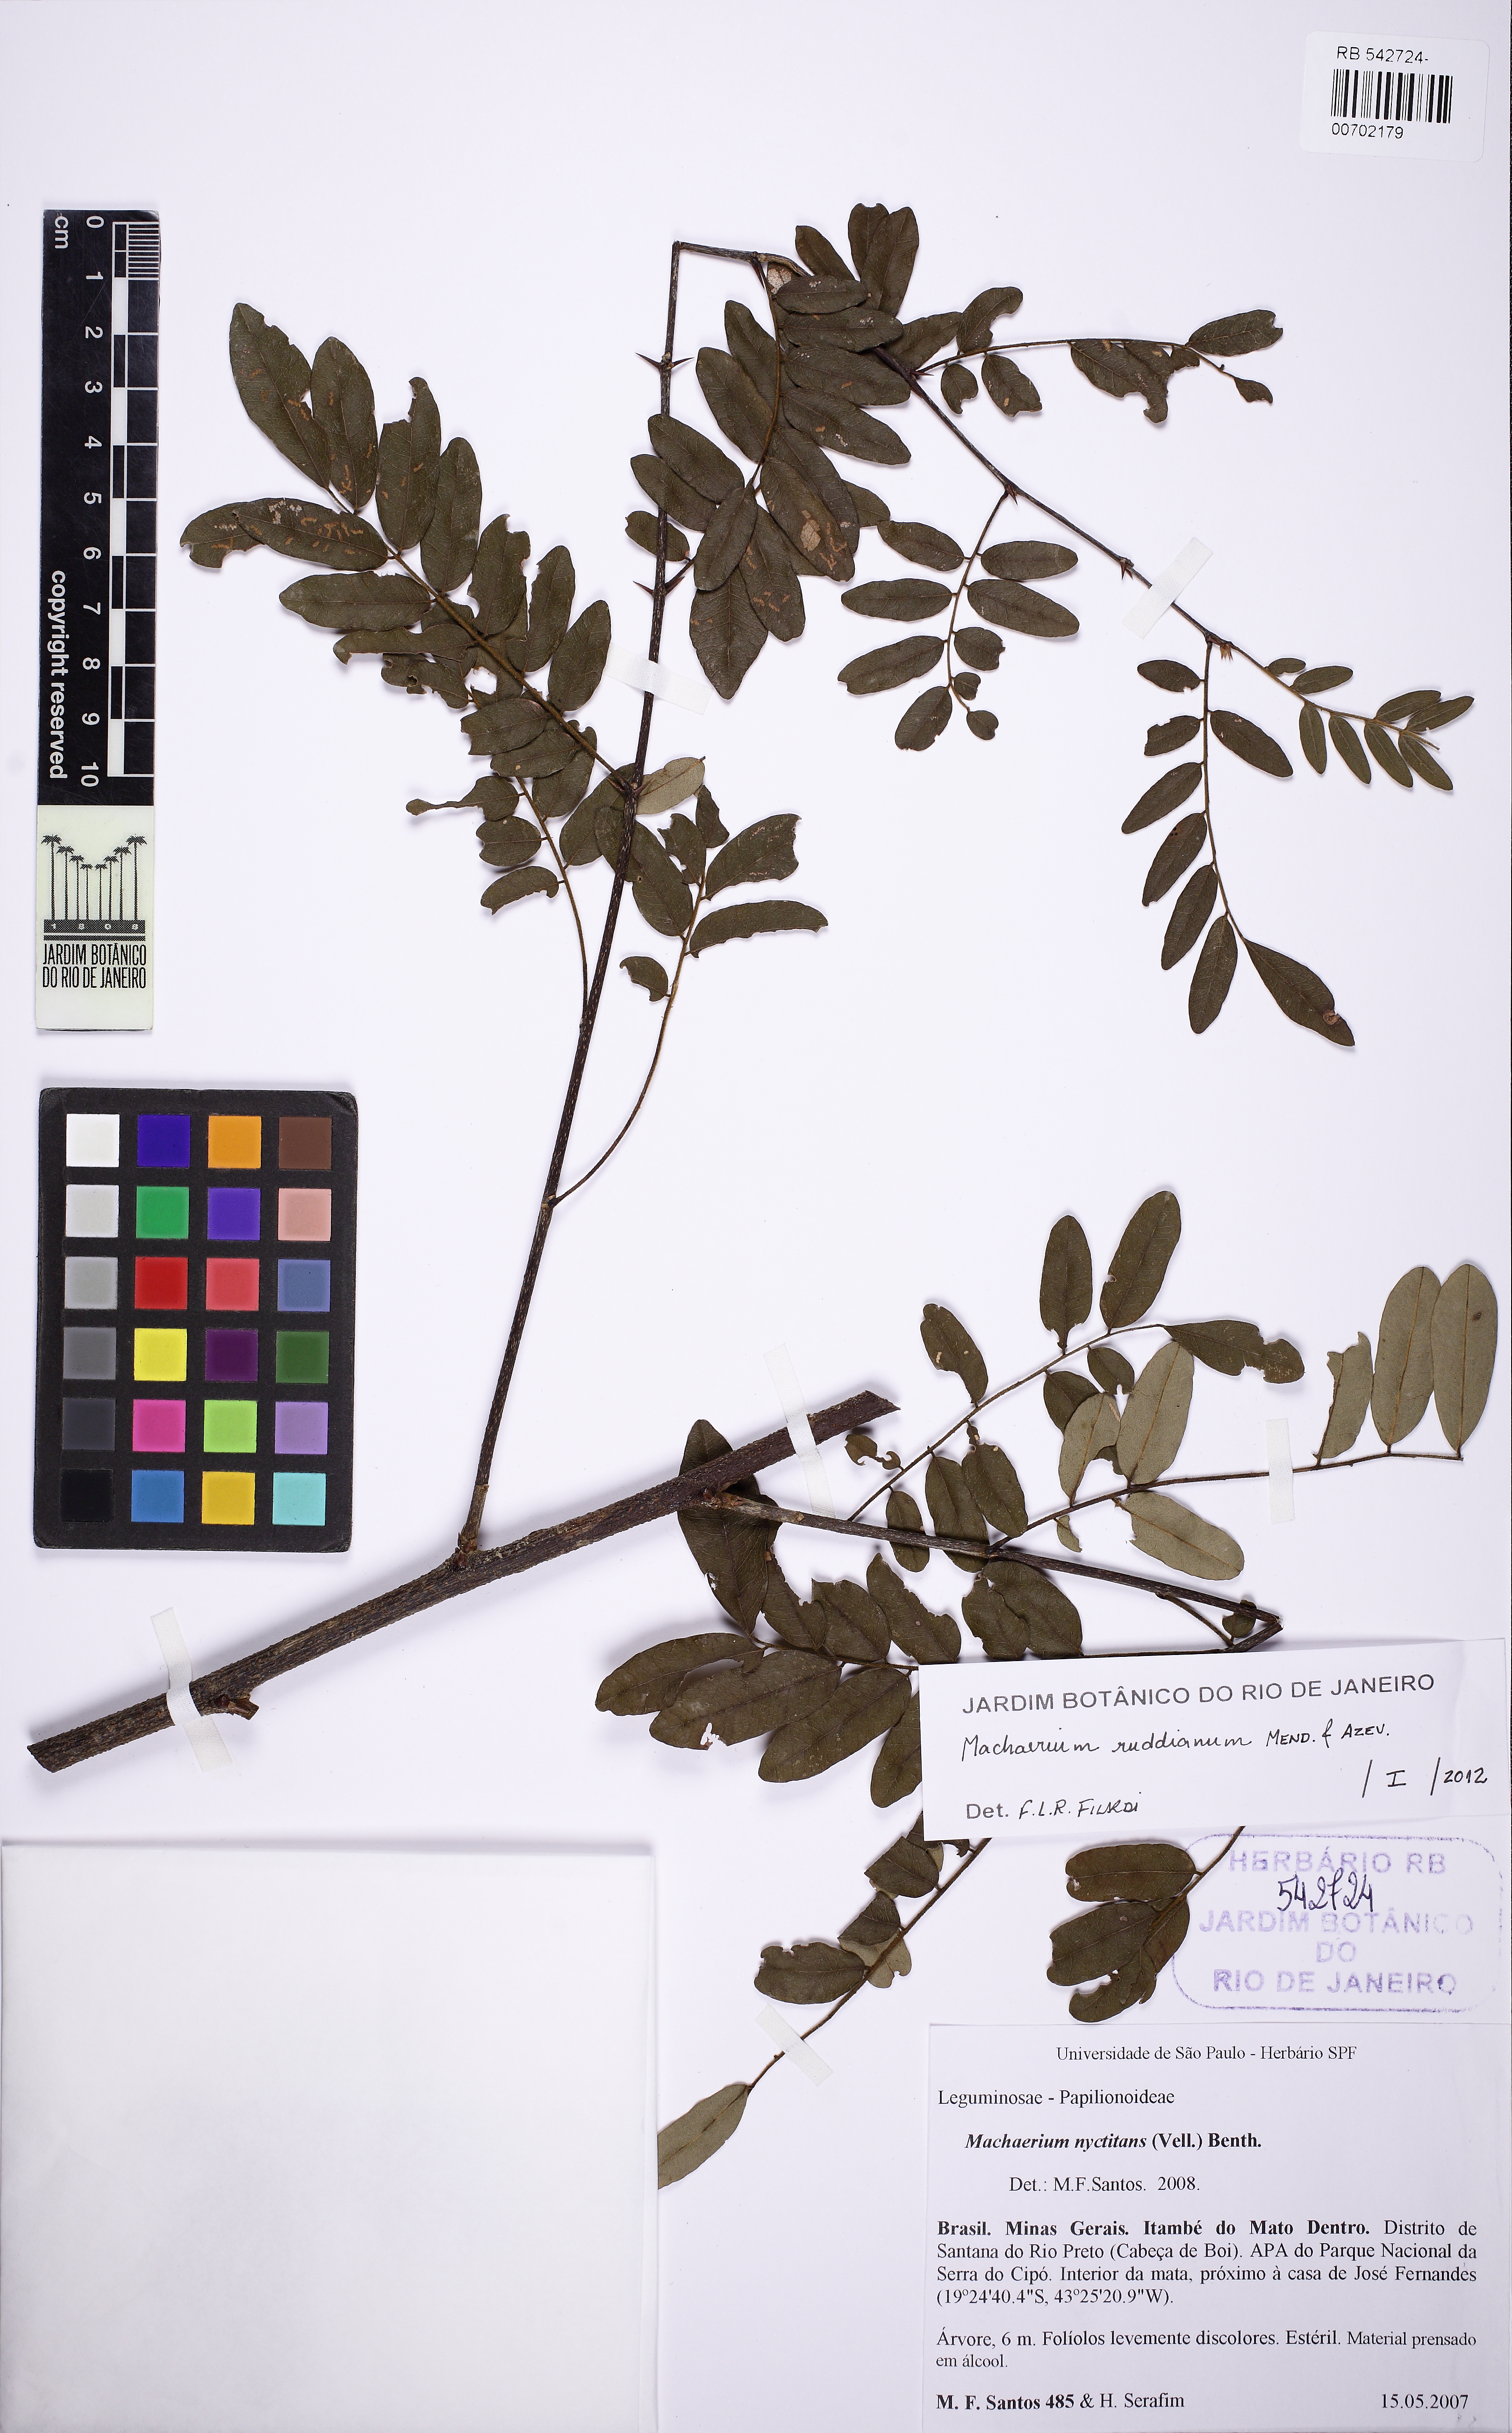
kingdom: Plantae
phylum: Tracheophyta
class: Magnoliopsida
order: Fabales
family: Fabaceae
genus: Machaerium
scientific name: Machaerium ruddianum
